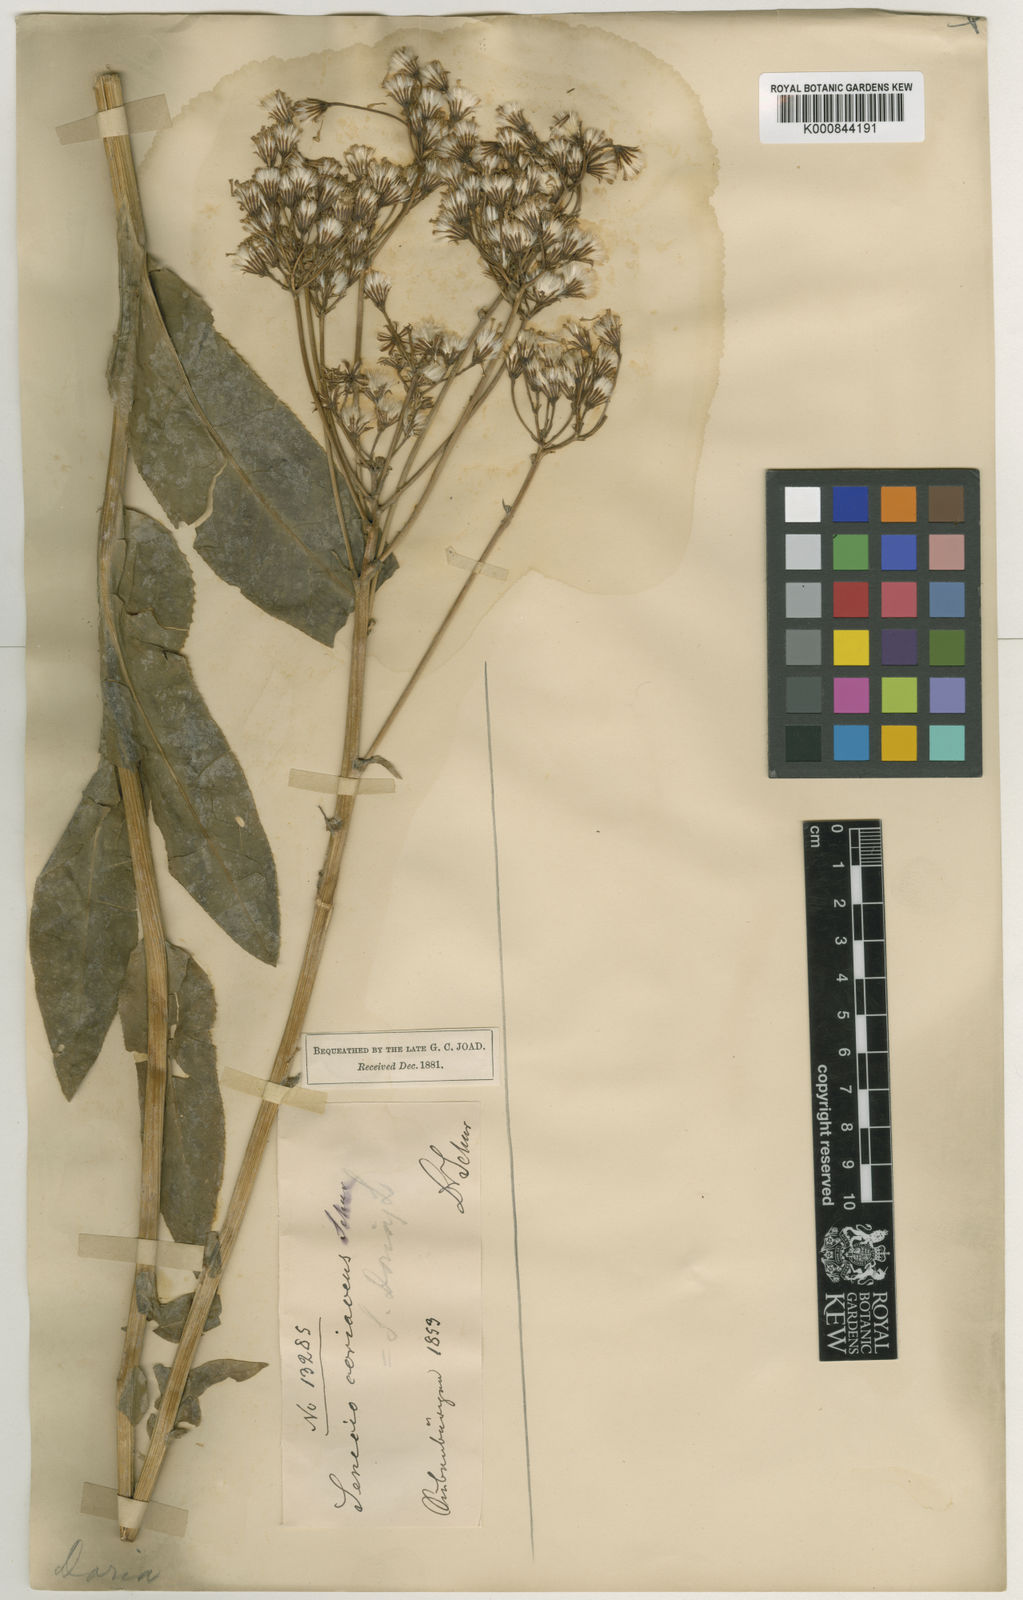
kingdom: Plantae
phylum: Tracheophyta
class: Magnoliopsida
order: Asterales
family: Asteraceae
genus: Senecio
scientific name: Senecio
